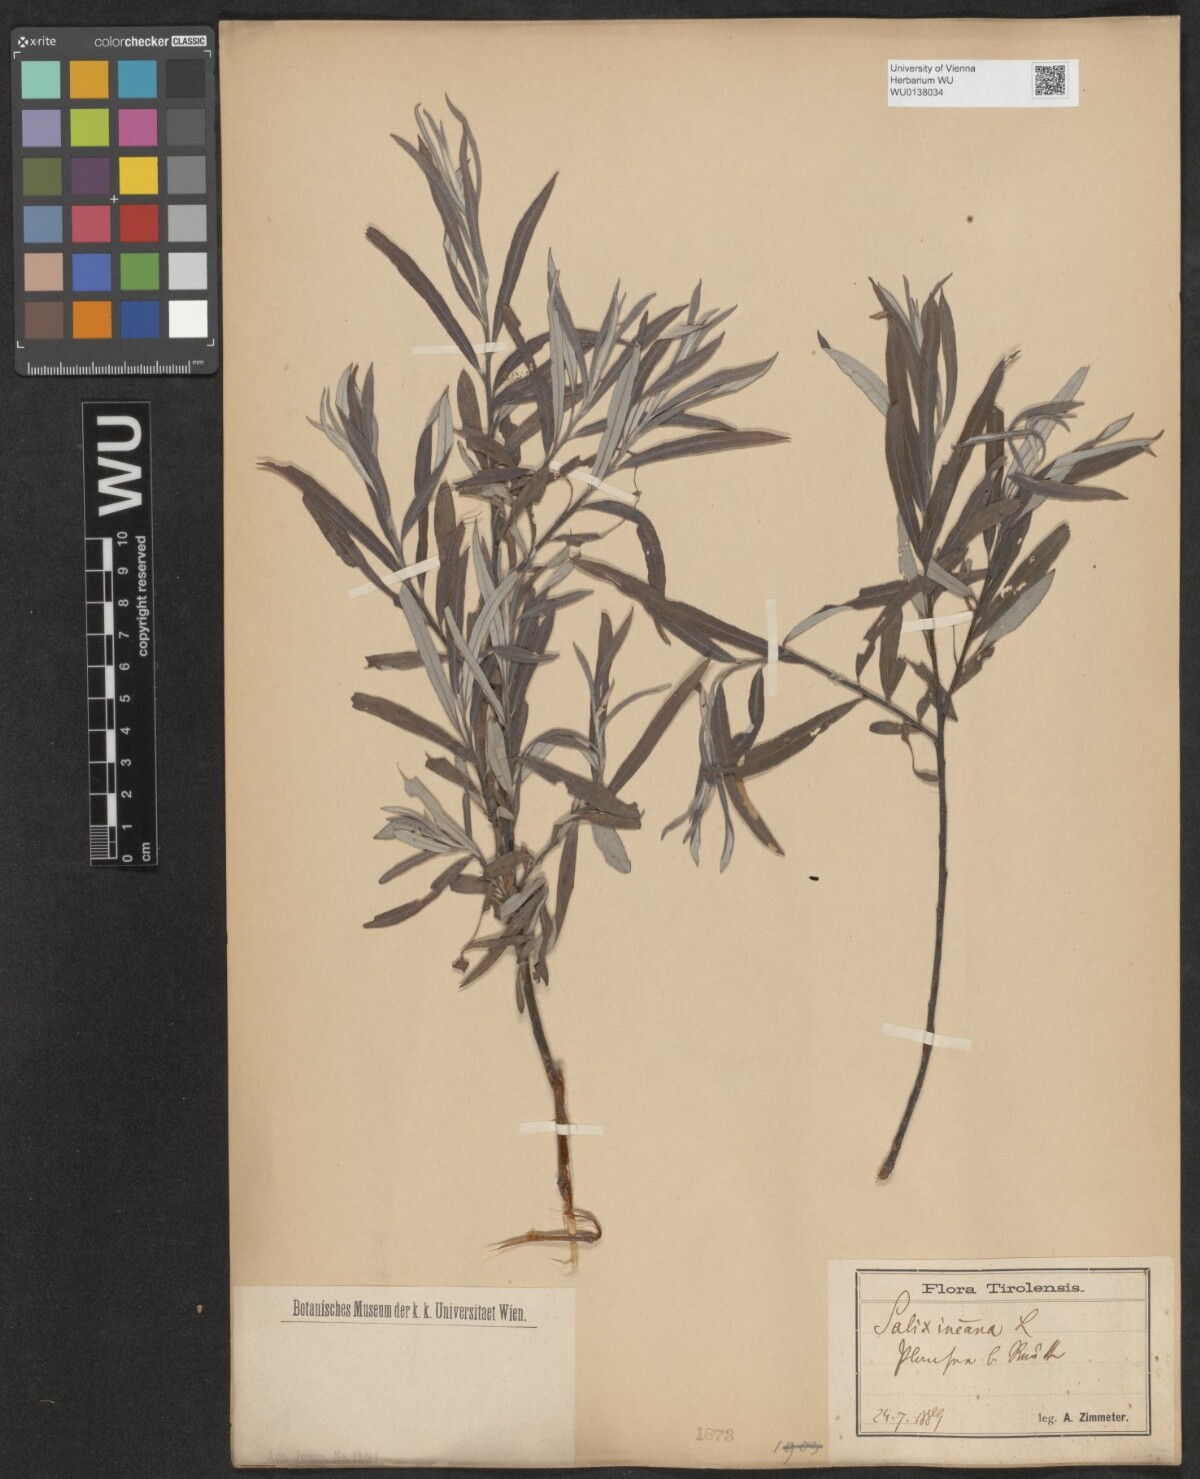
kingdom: Plantae
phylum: Tracheophyta
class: Magnoliopsida
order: Malpighiales
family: Salicaceae
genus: Salix
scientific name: Salix eleagnos
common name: Elaeagnus willow
